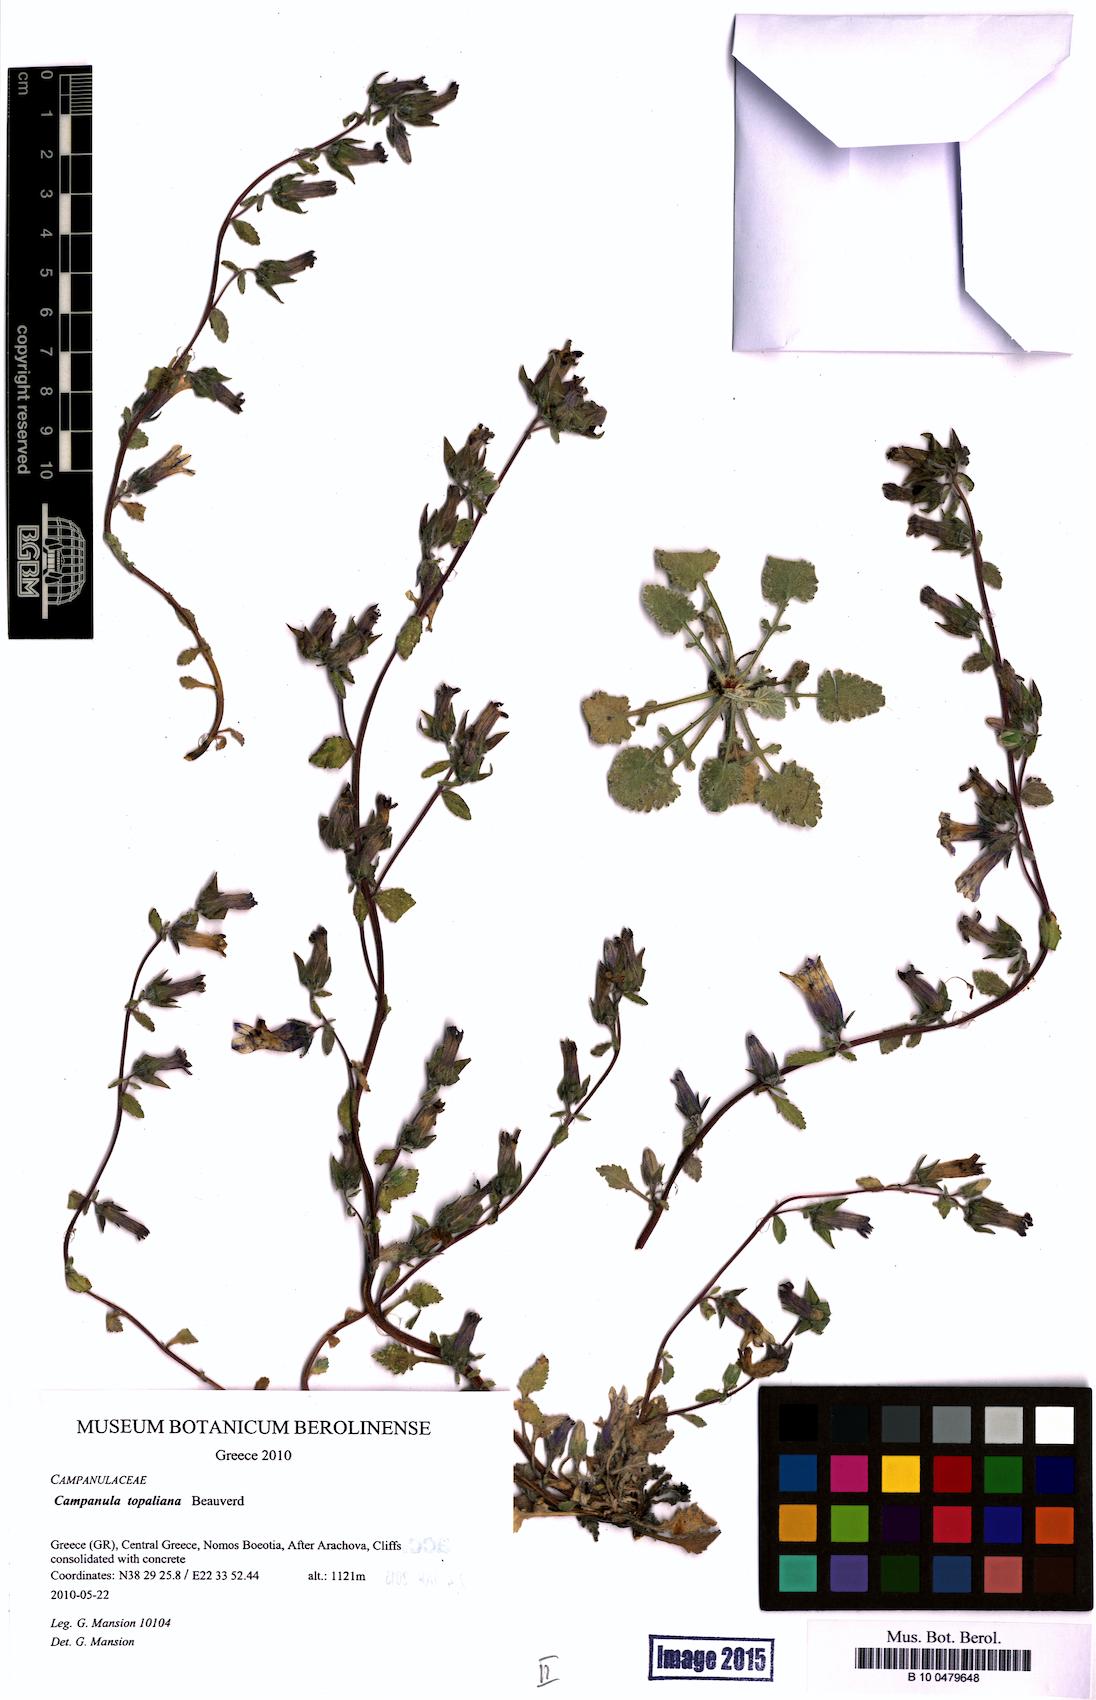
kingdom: Plantae
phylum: Tracheophyta
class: Magnoliopsida
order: Asterales
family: Campanulaceae
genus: Campanula
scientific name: Campanula topaliana
